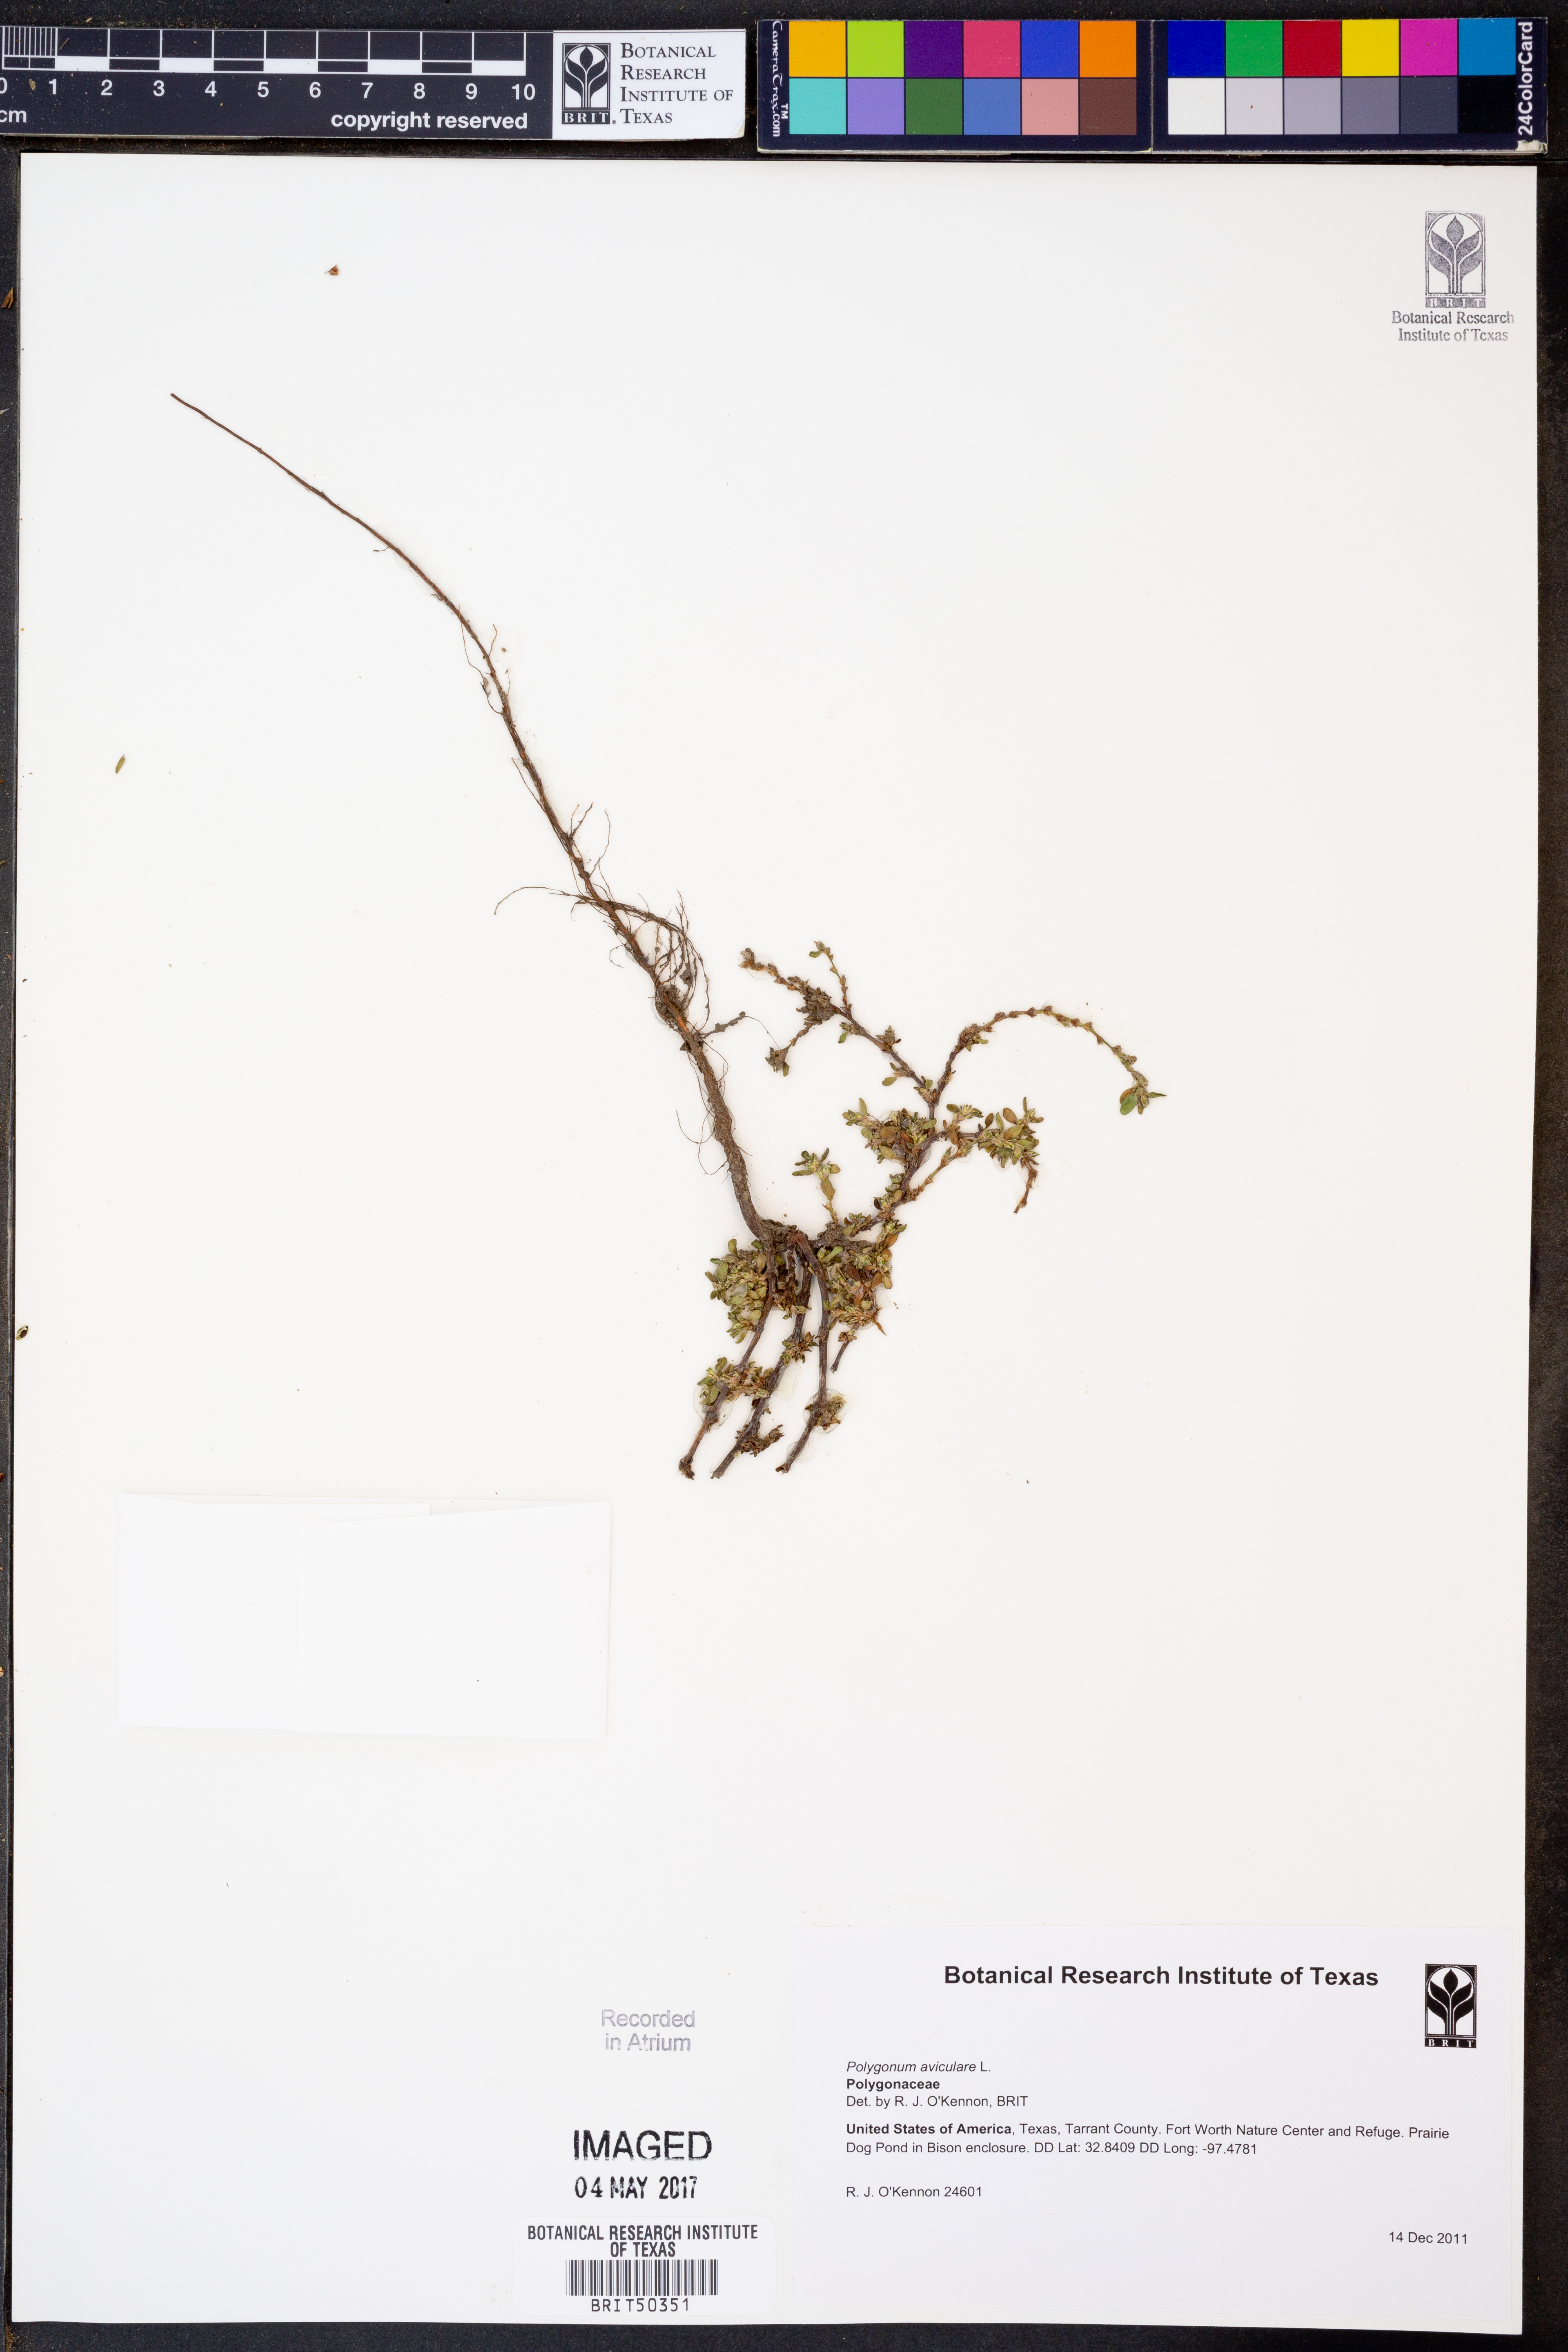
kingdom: Plantae
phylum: Tracheophyta
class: Magnoliopsida
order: Caryophyllales
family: Polygonaceae
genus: Polygonum
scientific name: Polygonum aviculare
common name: Prostrate knotweed
